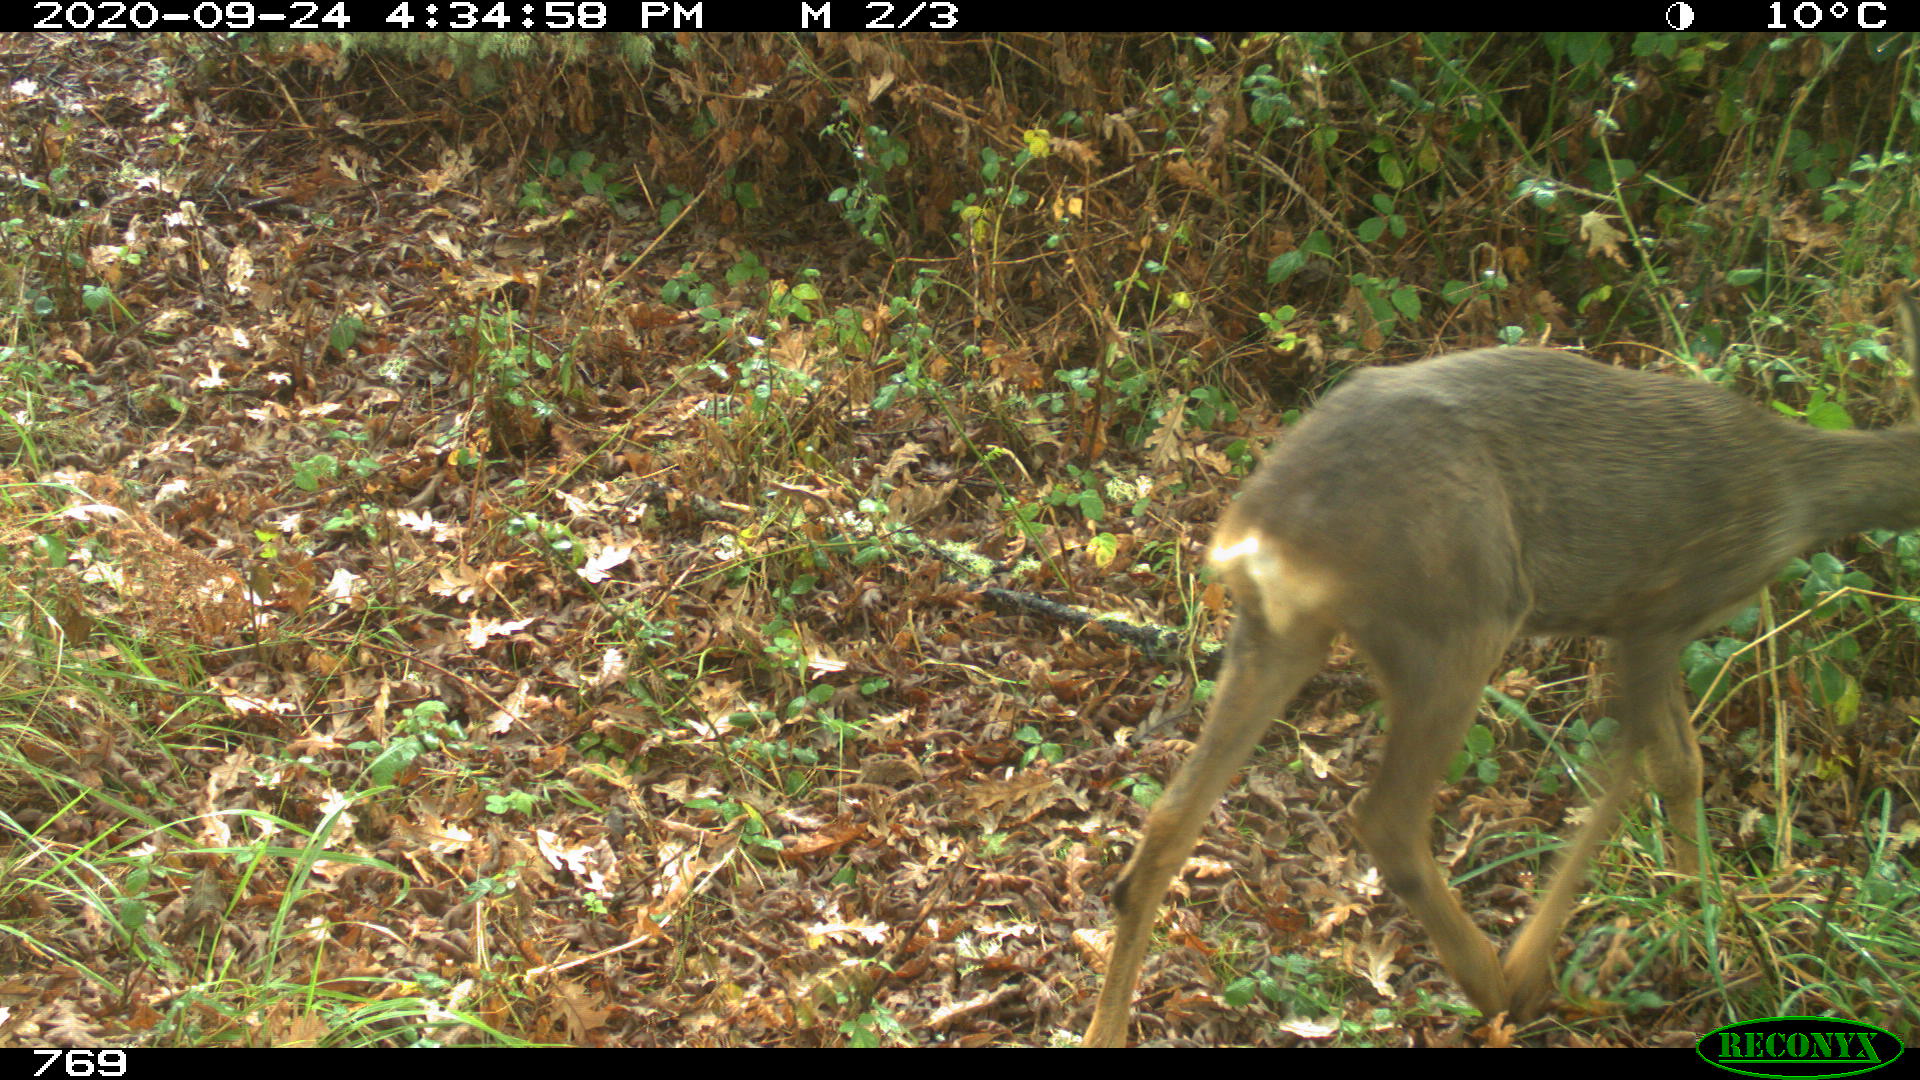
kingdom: Animalia
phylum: Chordata
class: Mammalia
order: Artiodactyla
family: Cervidae
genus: Capreolus
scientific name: Capreolus capreolus
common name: Western roe deer
